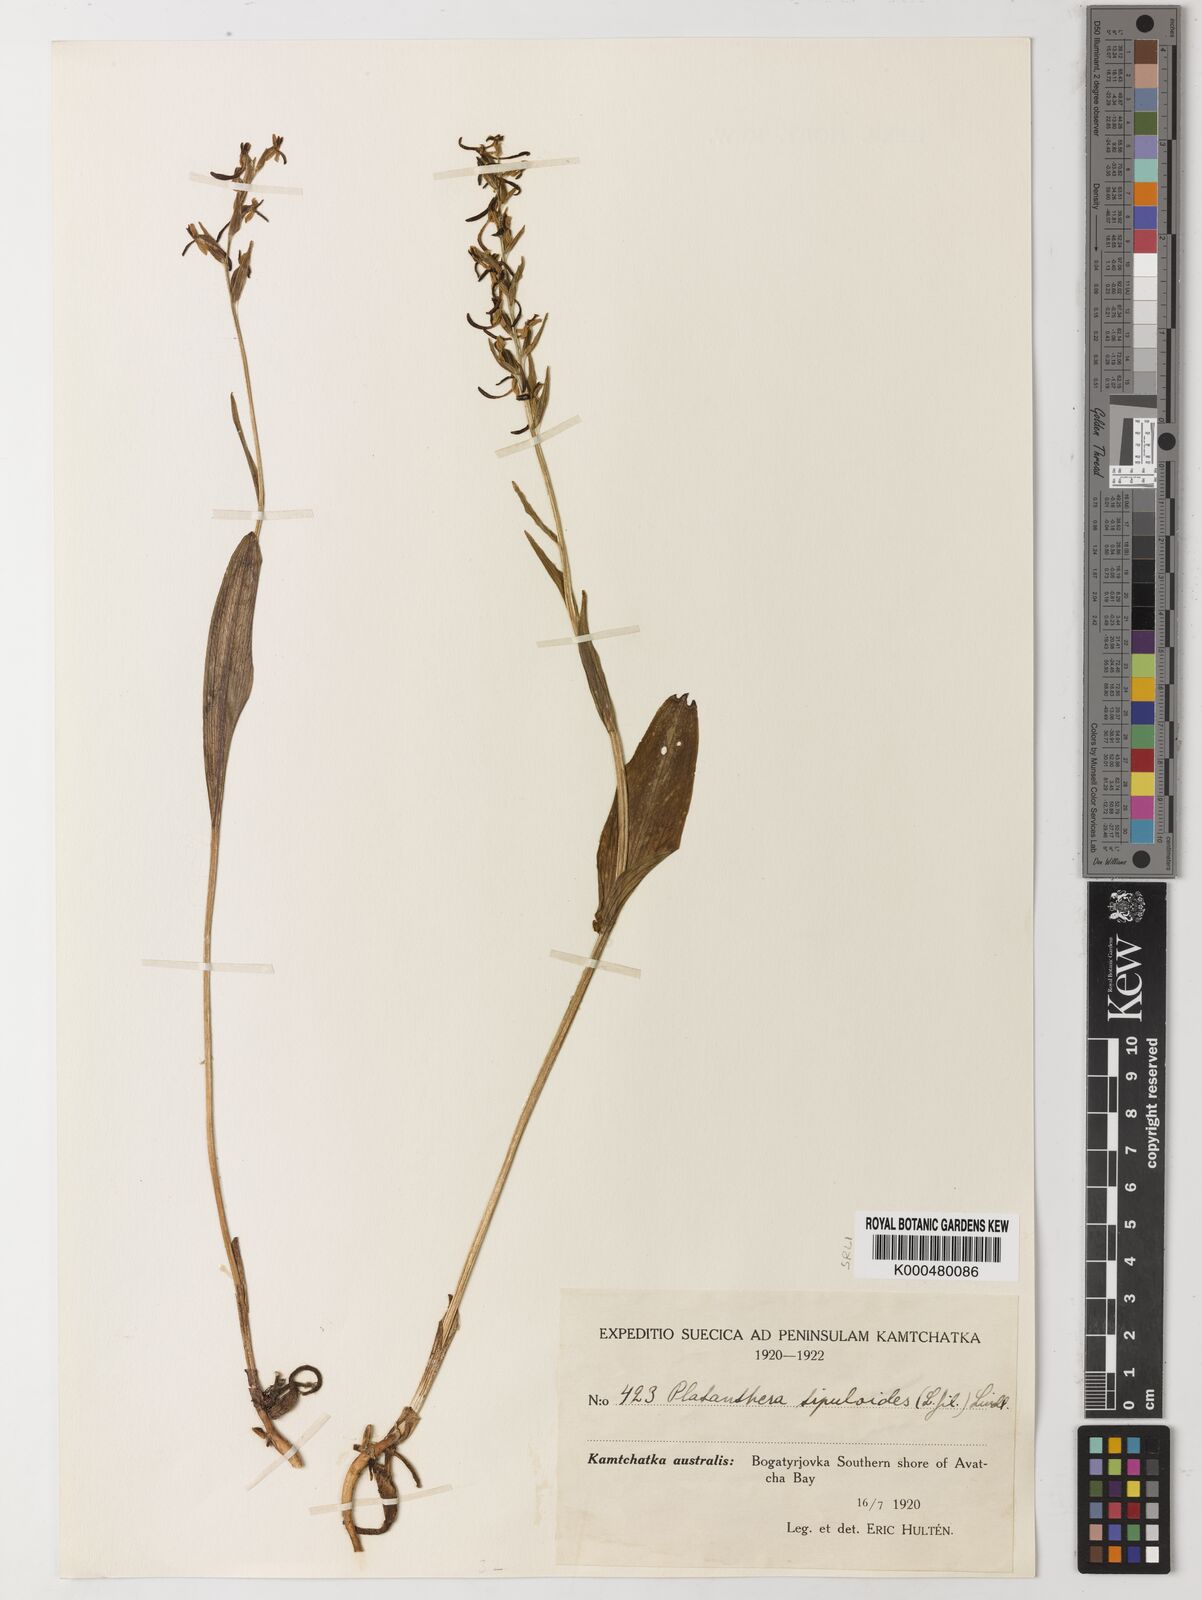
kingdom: Plantae
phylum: Tracheophyta
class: Liliopsida
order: Asparagales
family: Orchidaceae
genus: Platanthera
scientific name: Platanthera tipuloides
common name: Aleutian bog orchid
